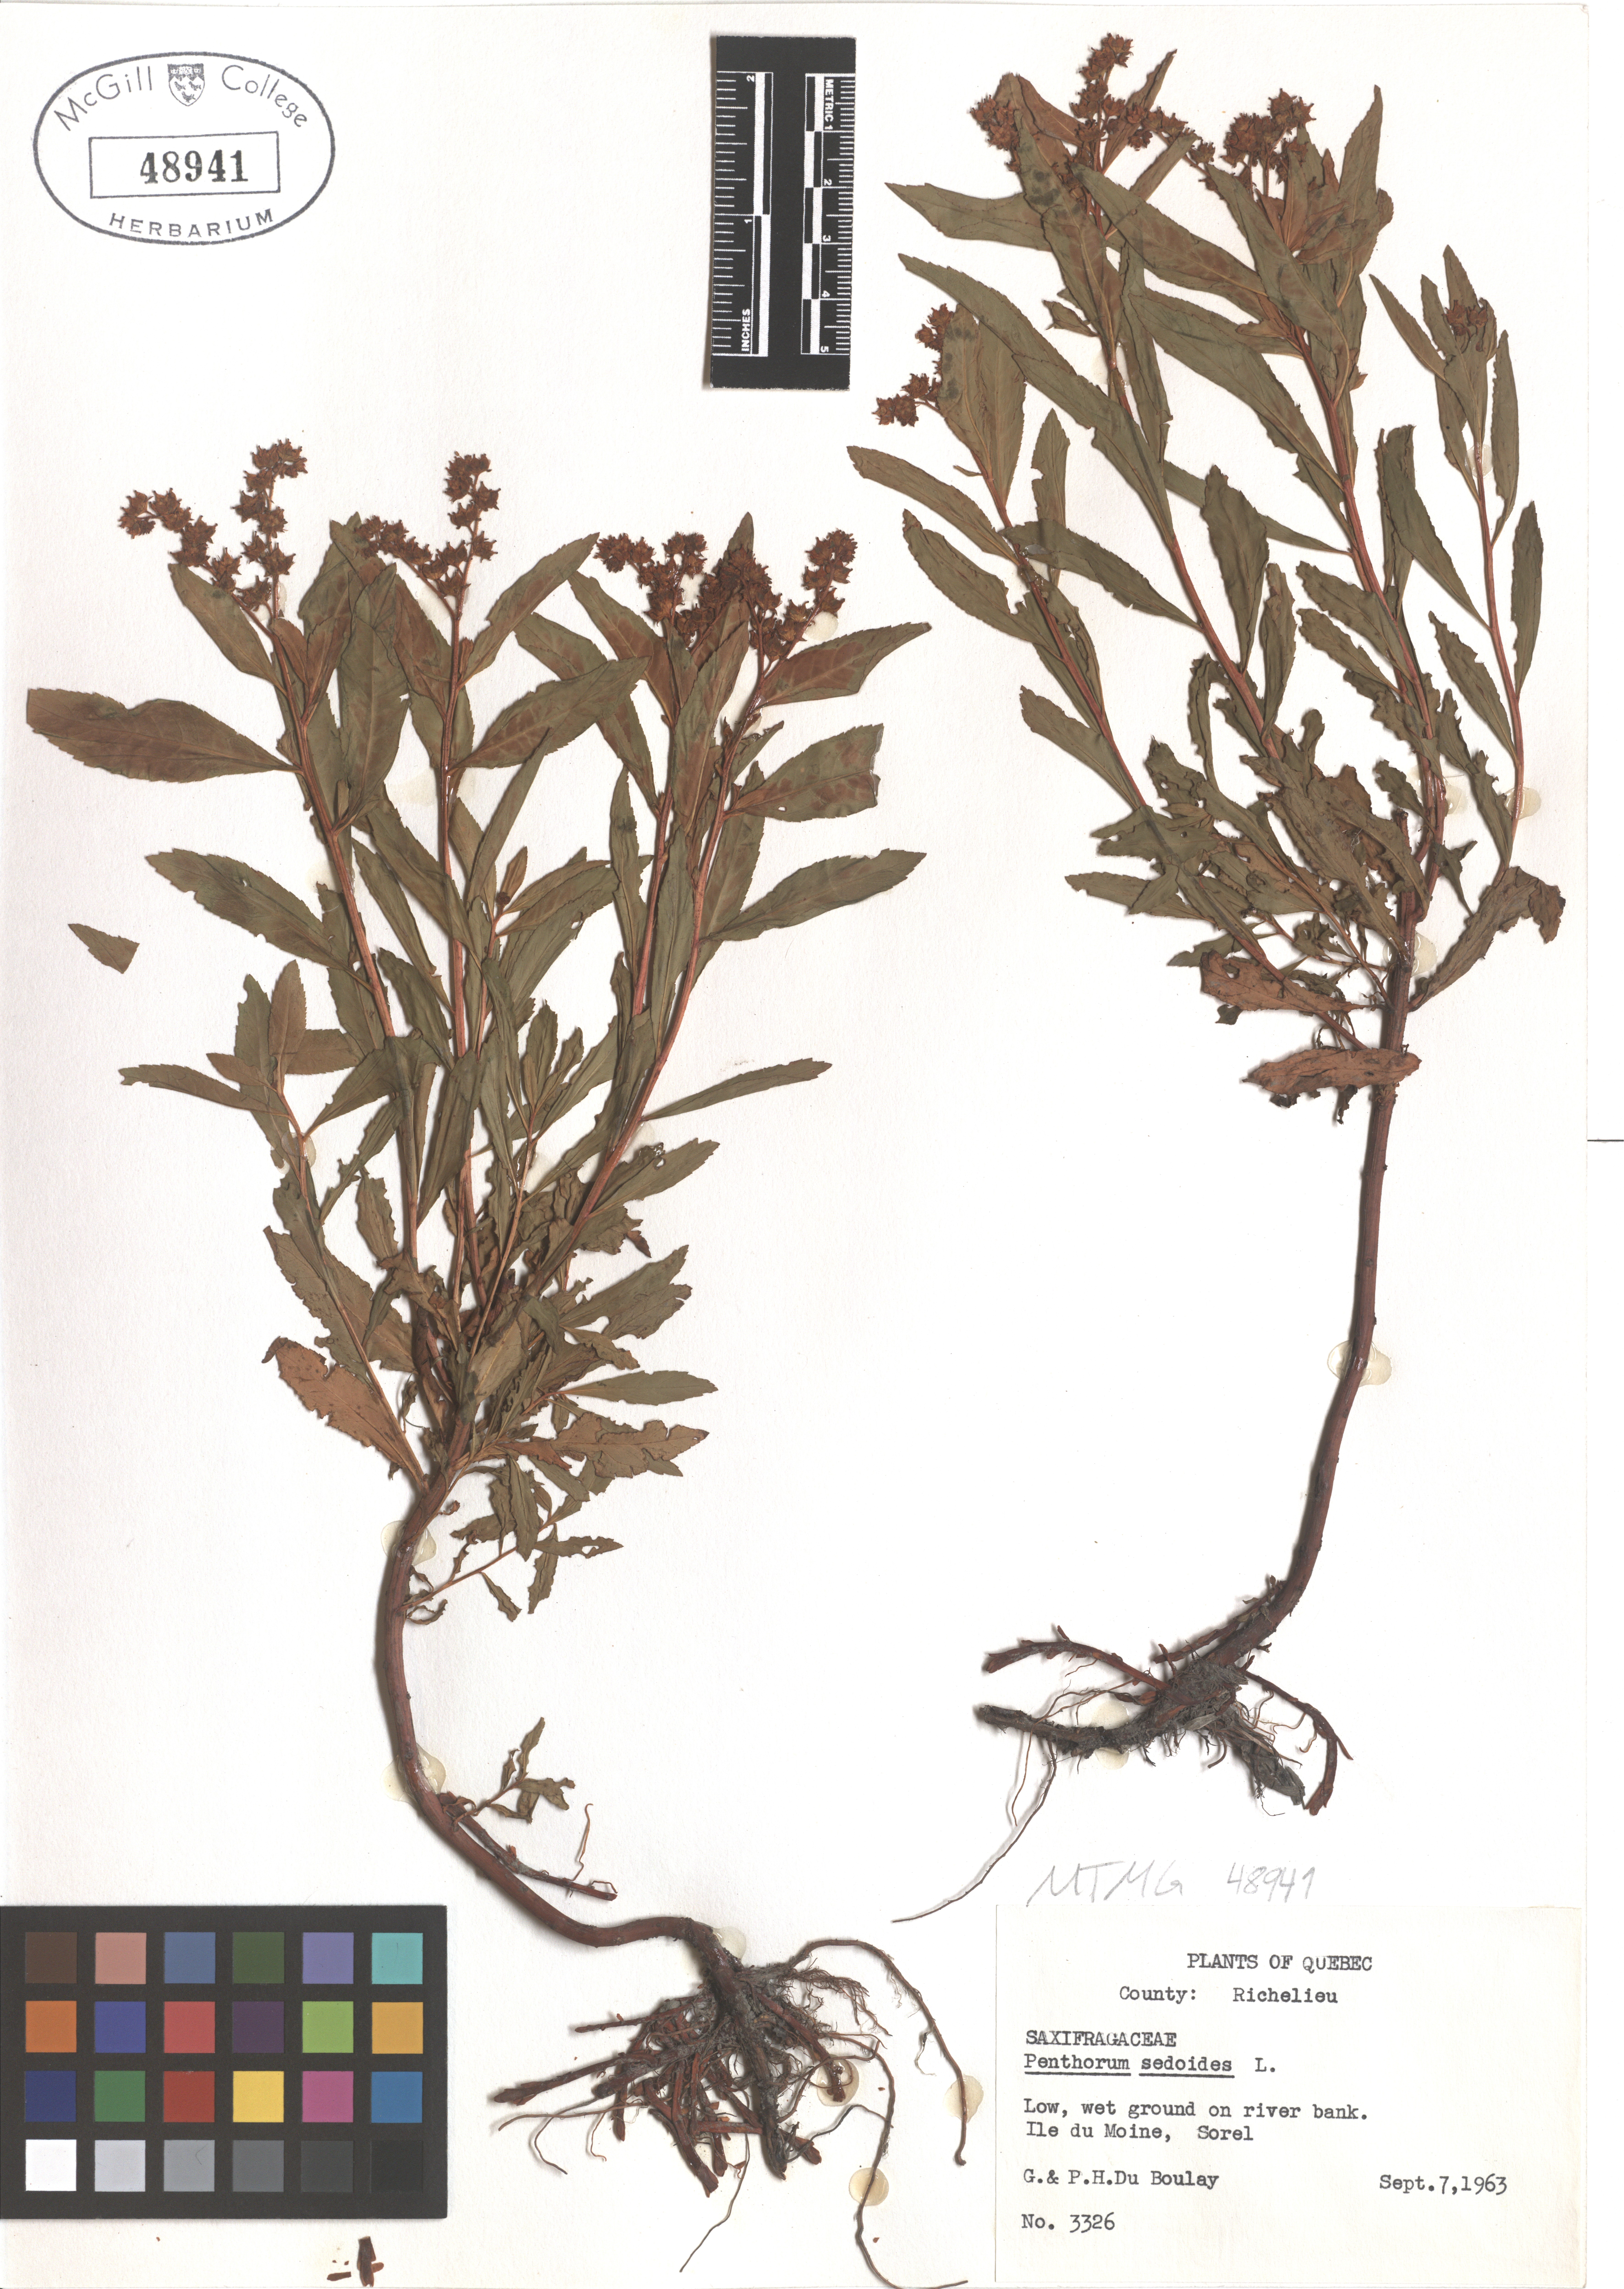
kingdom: Plantae
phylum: Tracheophyta
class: Magnoliopsida
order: Saxifragales
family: Penthoraceae
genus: Penthorum
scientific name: Penthorum sedoides
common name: Ditch stonecrop
